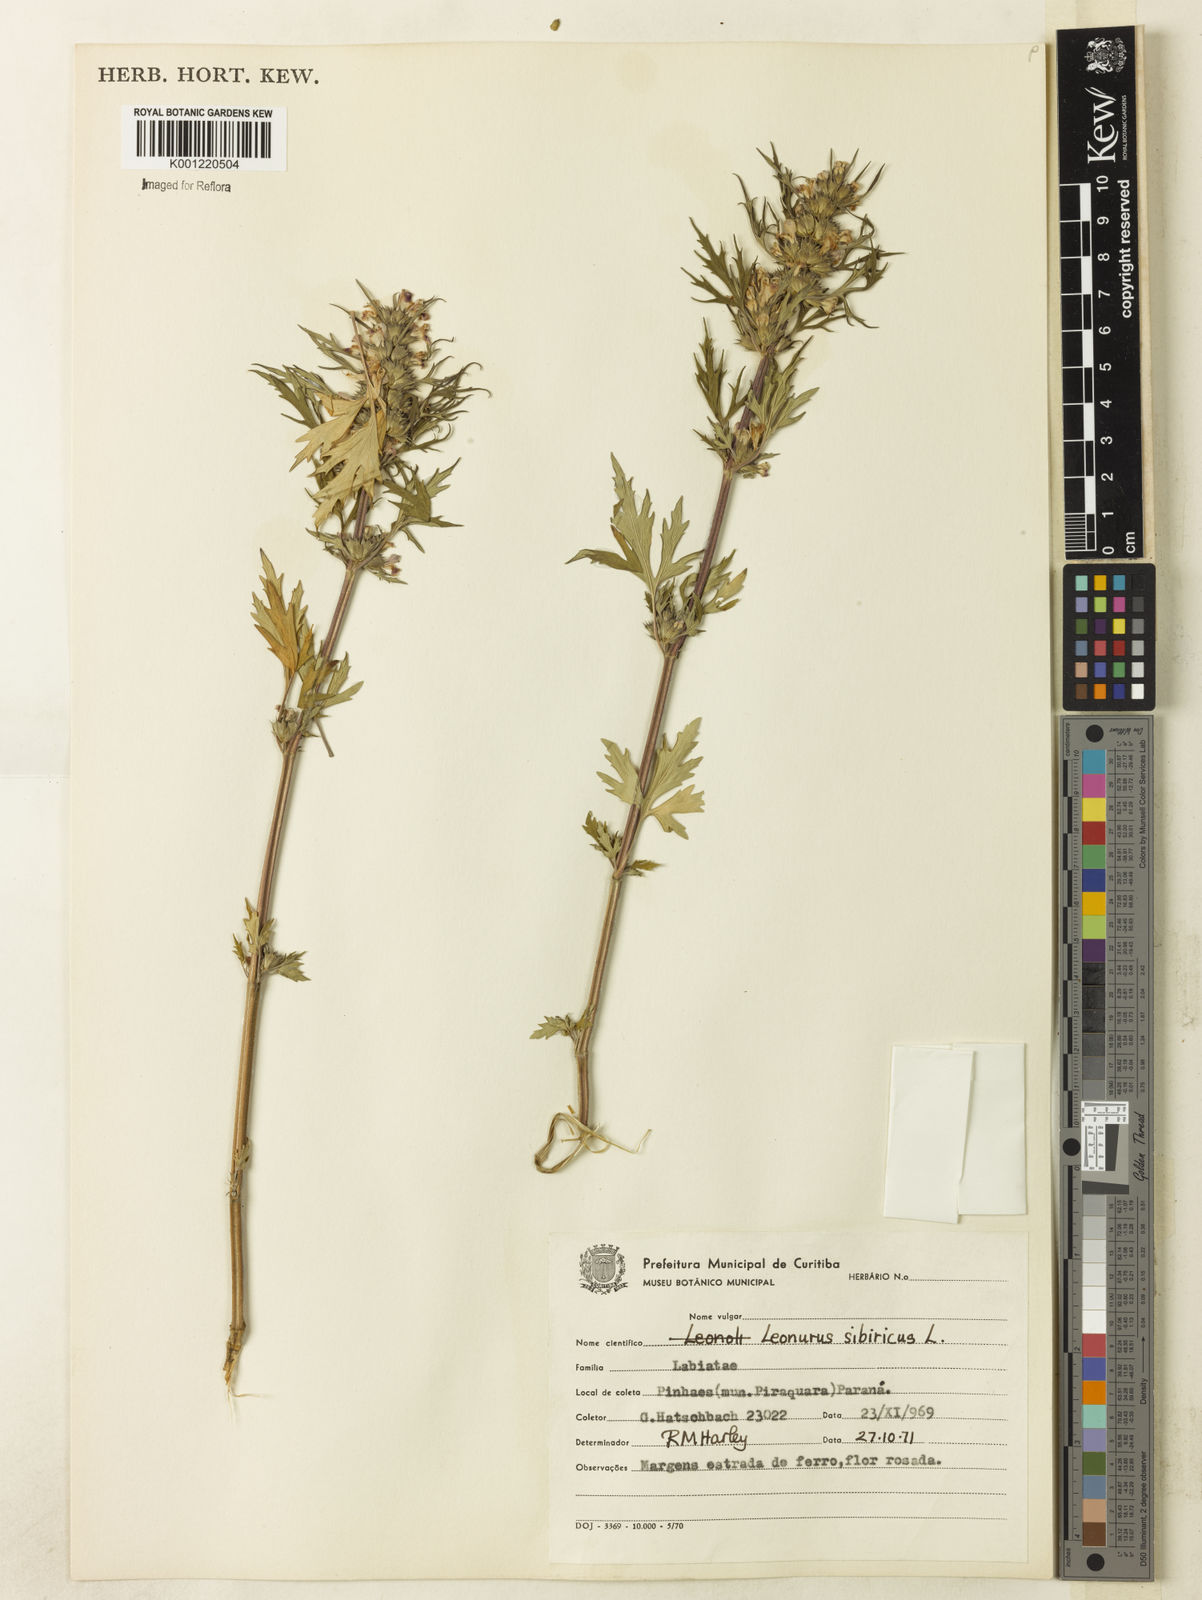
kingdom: Plantae
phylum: Tracheophyta
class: Magnoliopsida
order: Lamiales
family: Lamiaceae
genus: Leonurus
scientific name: Leonurus japonicus
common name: Honeyweed
